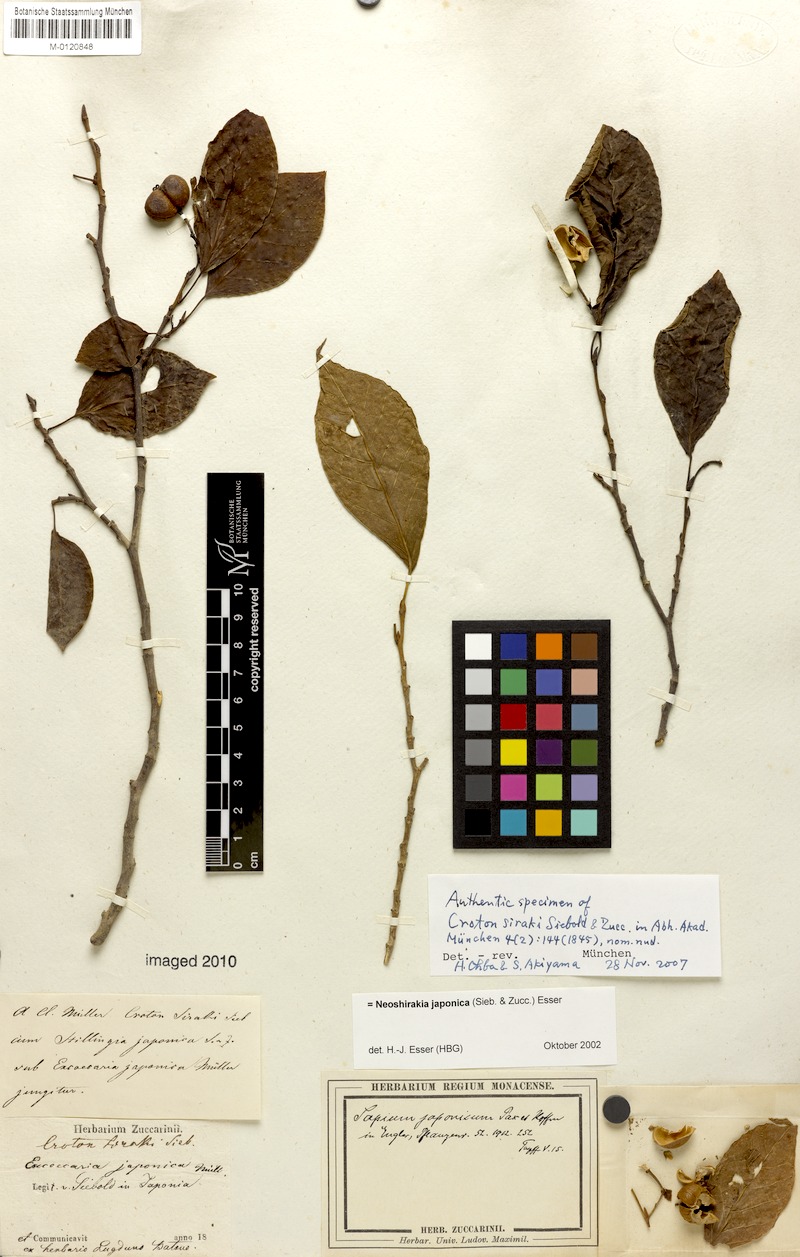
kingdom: Plantae
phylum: Tracheophyta
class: Magnoliopsida
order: Malpighiales
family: Euphorbiaceae
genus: Neoshirakia
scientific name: Neoshirakia japonica
